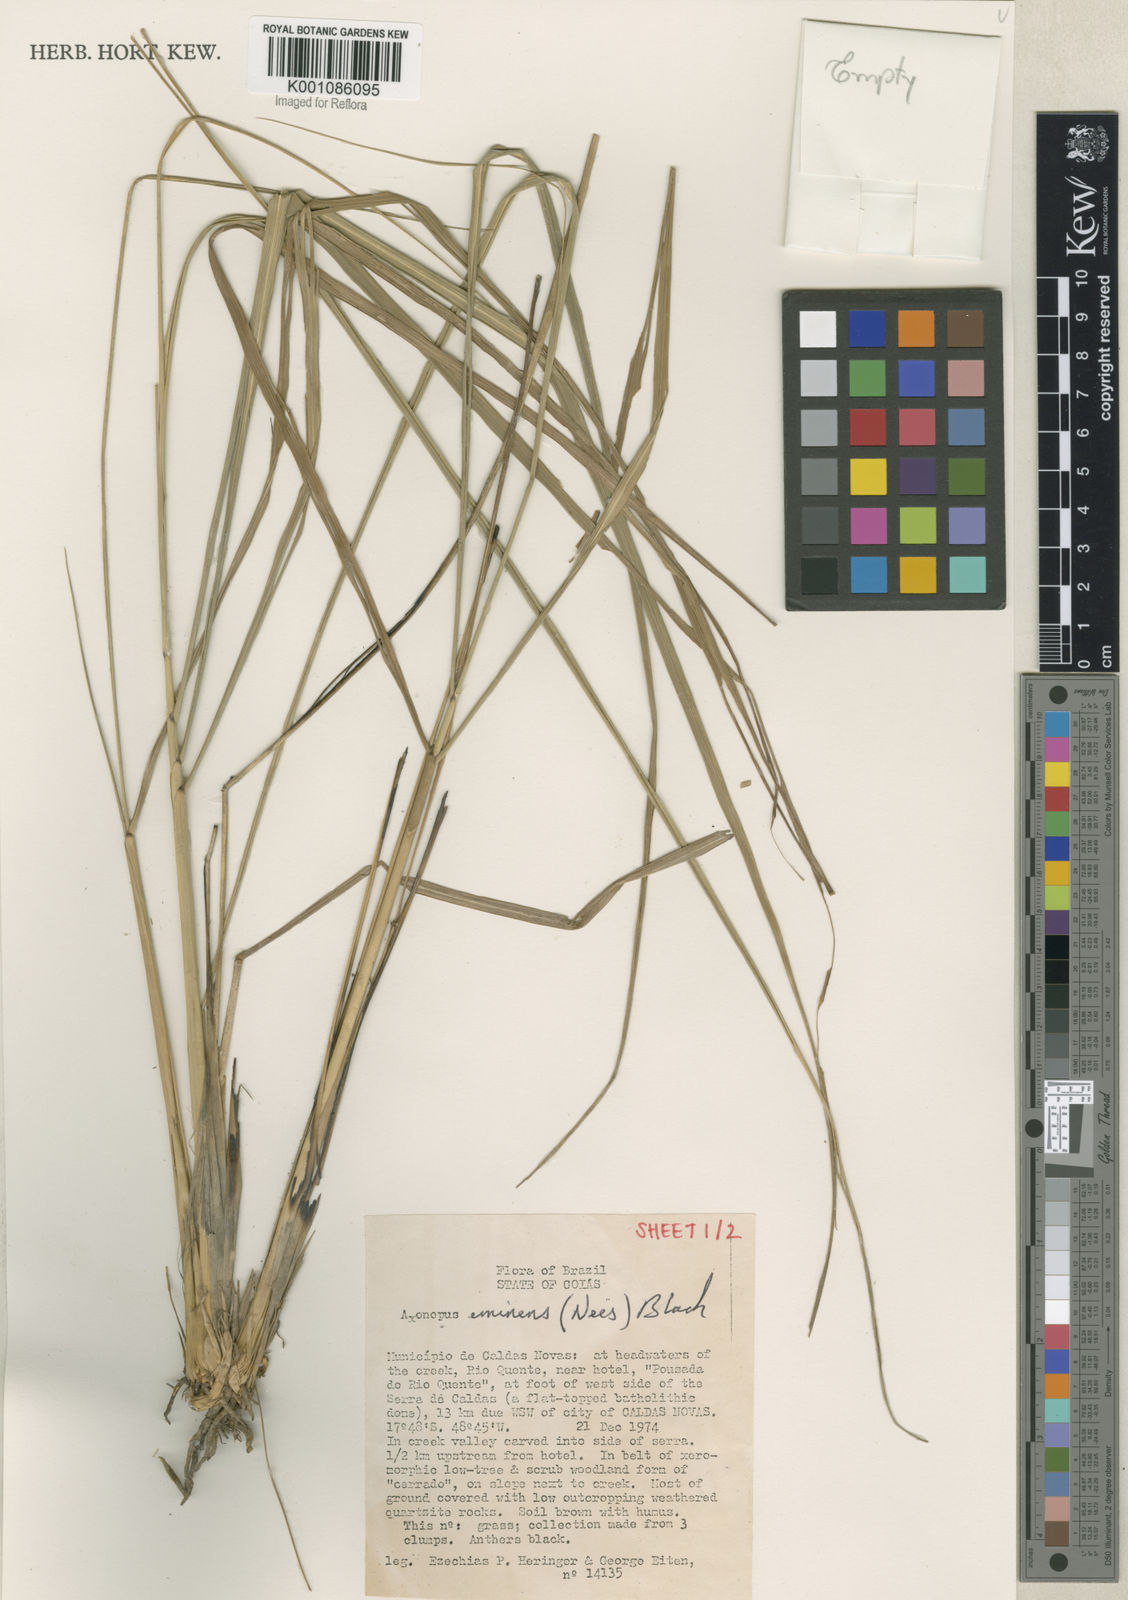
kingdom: Plantae
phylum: Tracheophyta
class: Liliopsida
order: Poales
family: Poaceae
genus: Axonopus
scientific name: Axonopus eminens
